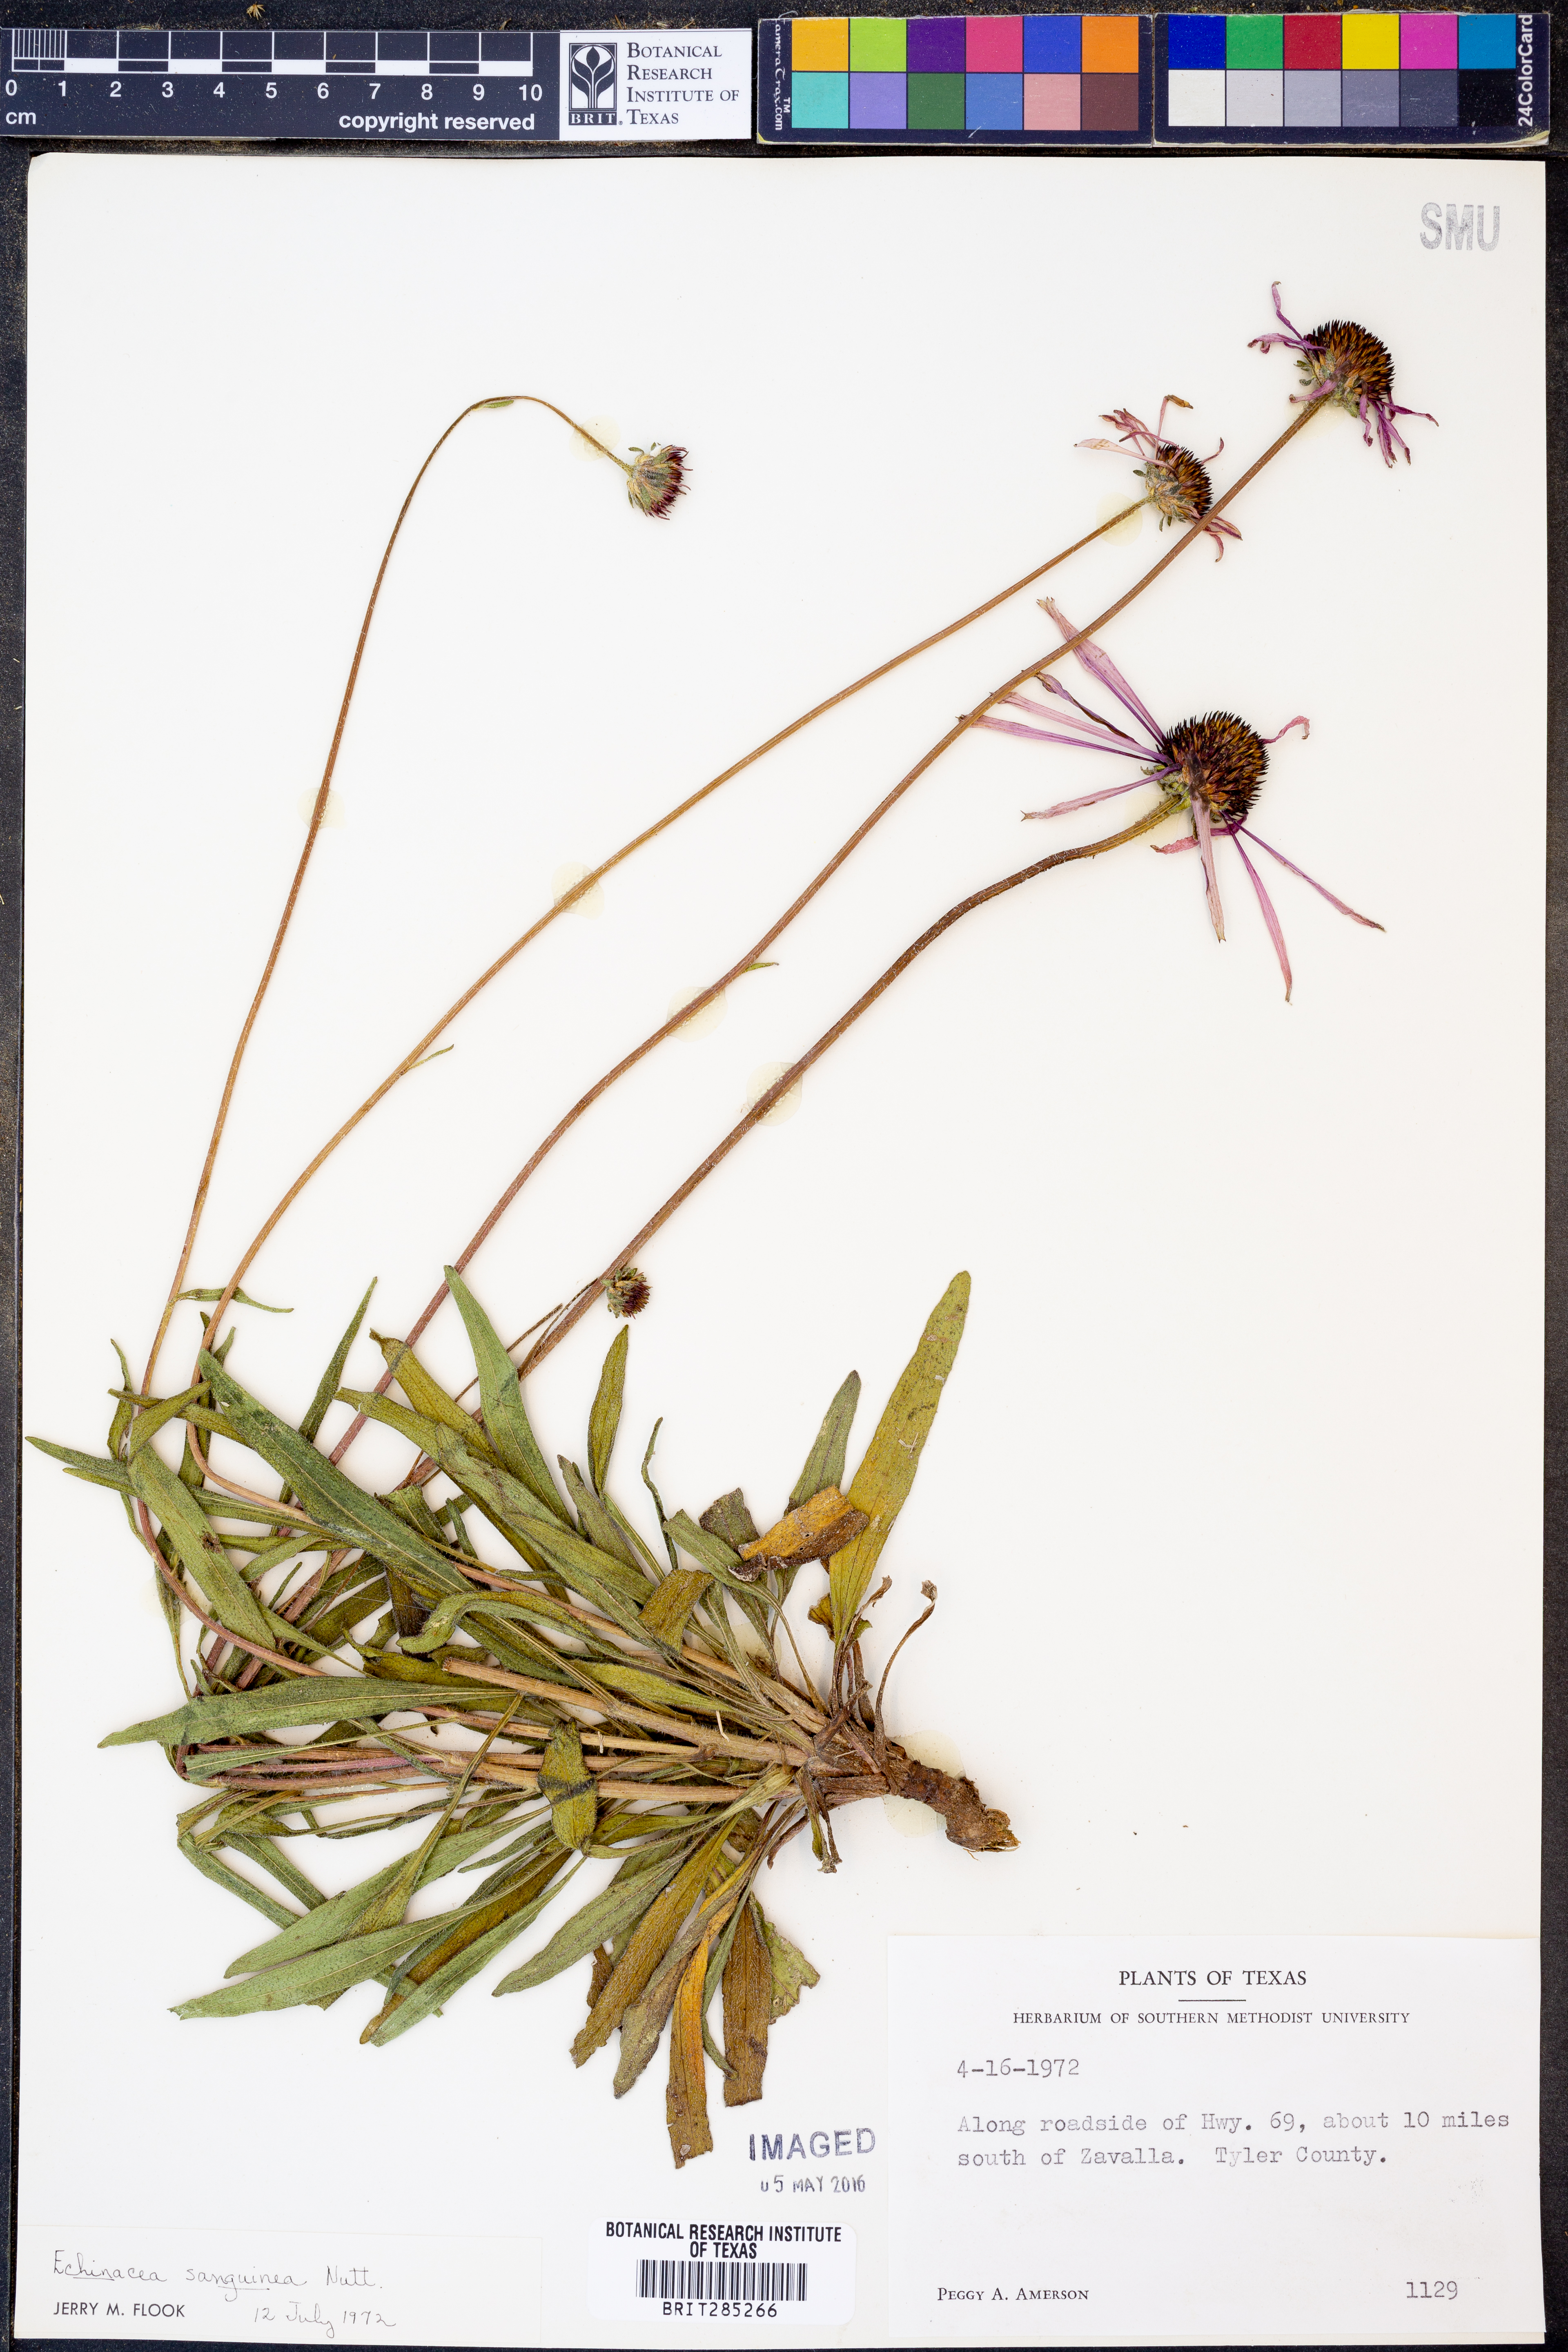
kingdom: Plantae
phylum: Tracheophyta
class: Magnoliopsida
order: Asterales
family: Asteraceae
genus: Echinacea
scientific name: Echinacea sanguinea
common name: Sanguine purple-coneflower
